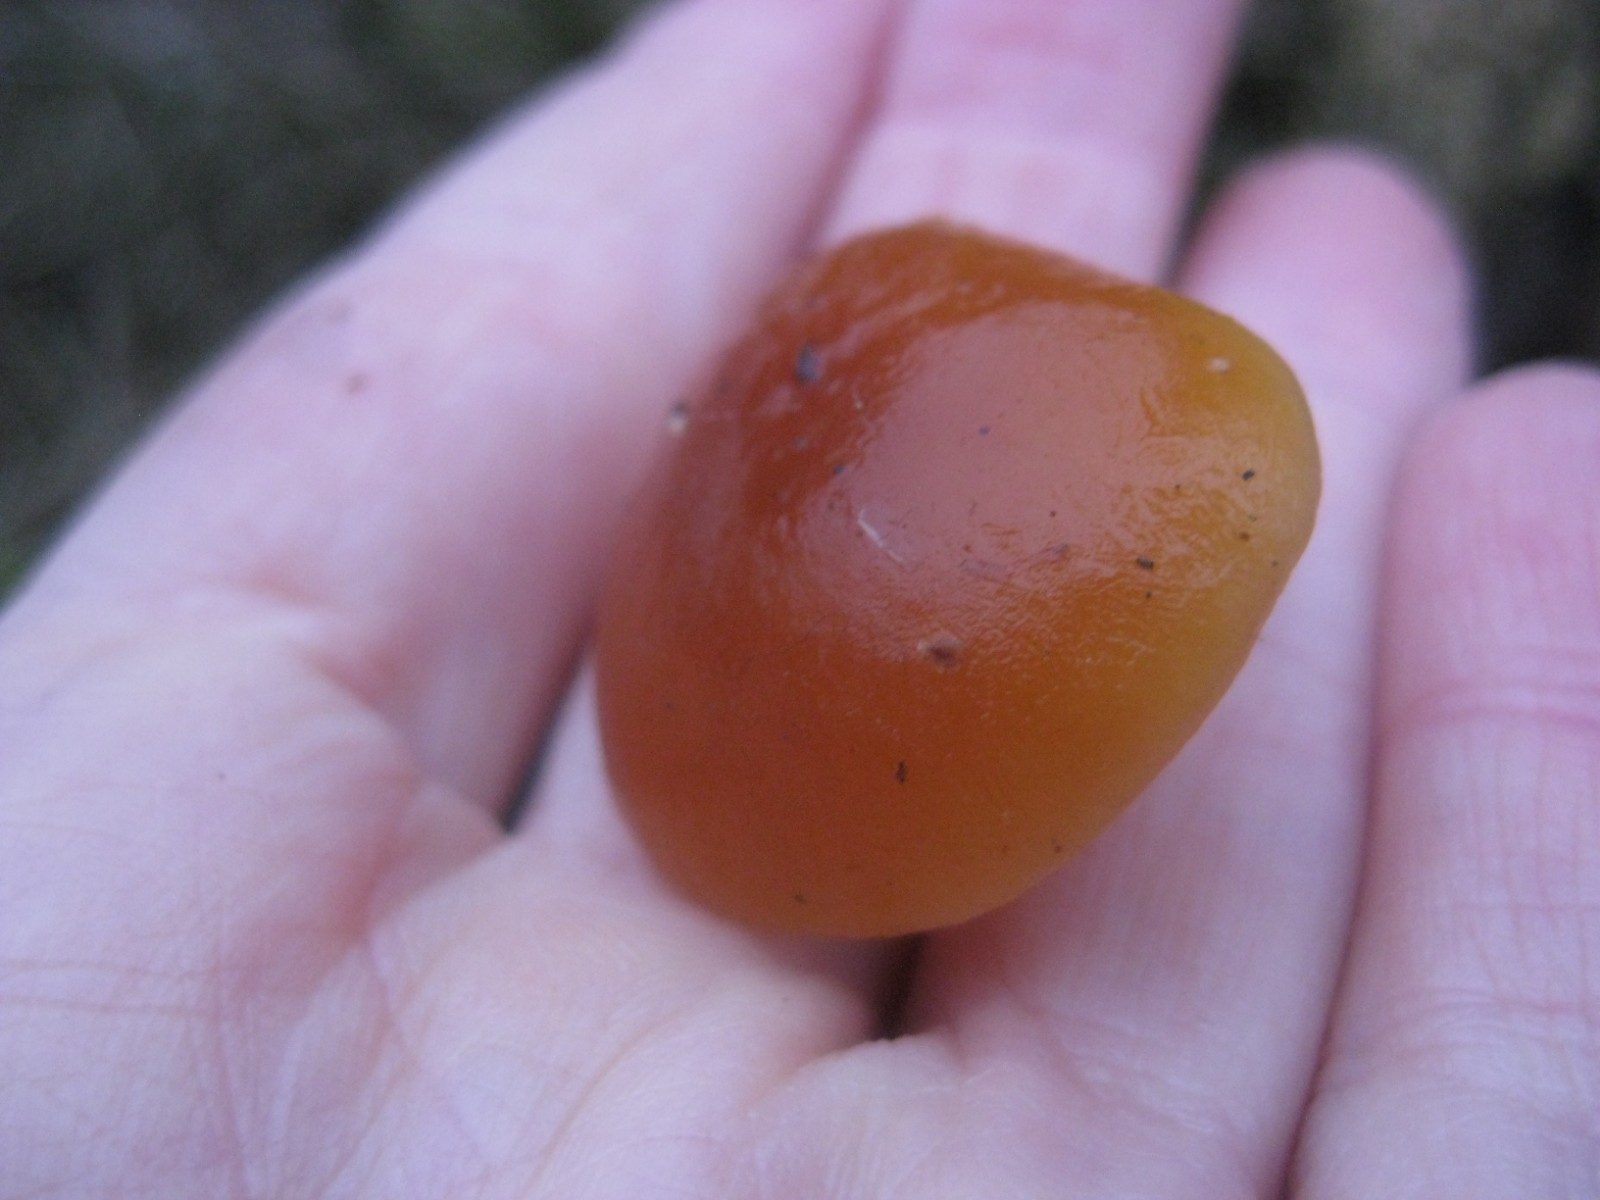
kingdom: Fungi
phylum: Basidiomycota
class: Agaricomycetes
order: Agaricales
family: Physalacriaceae
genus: Flammulina
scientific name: Flammulina velutipes
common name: gul fløjlsfod
